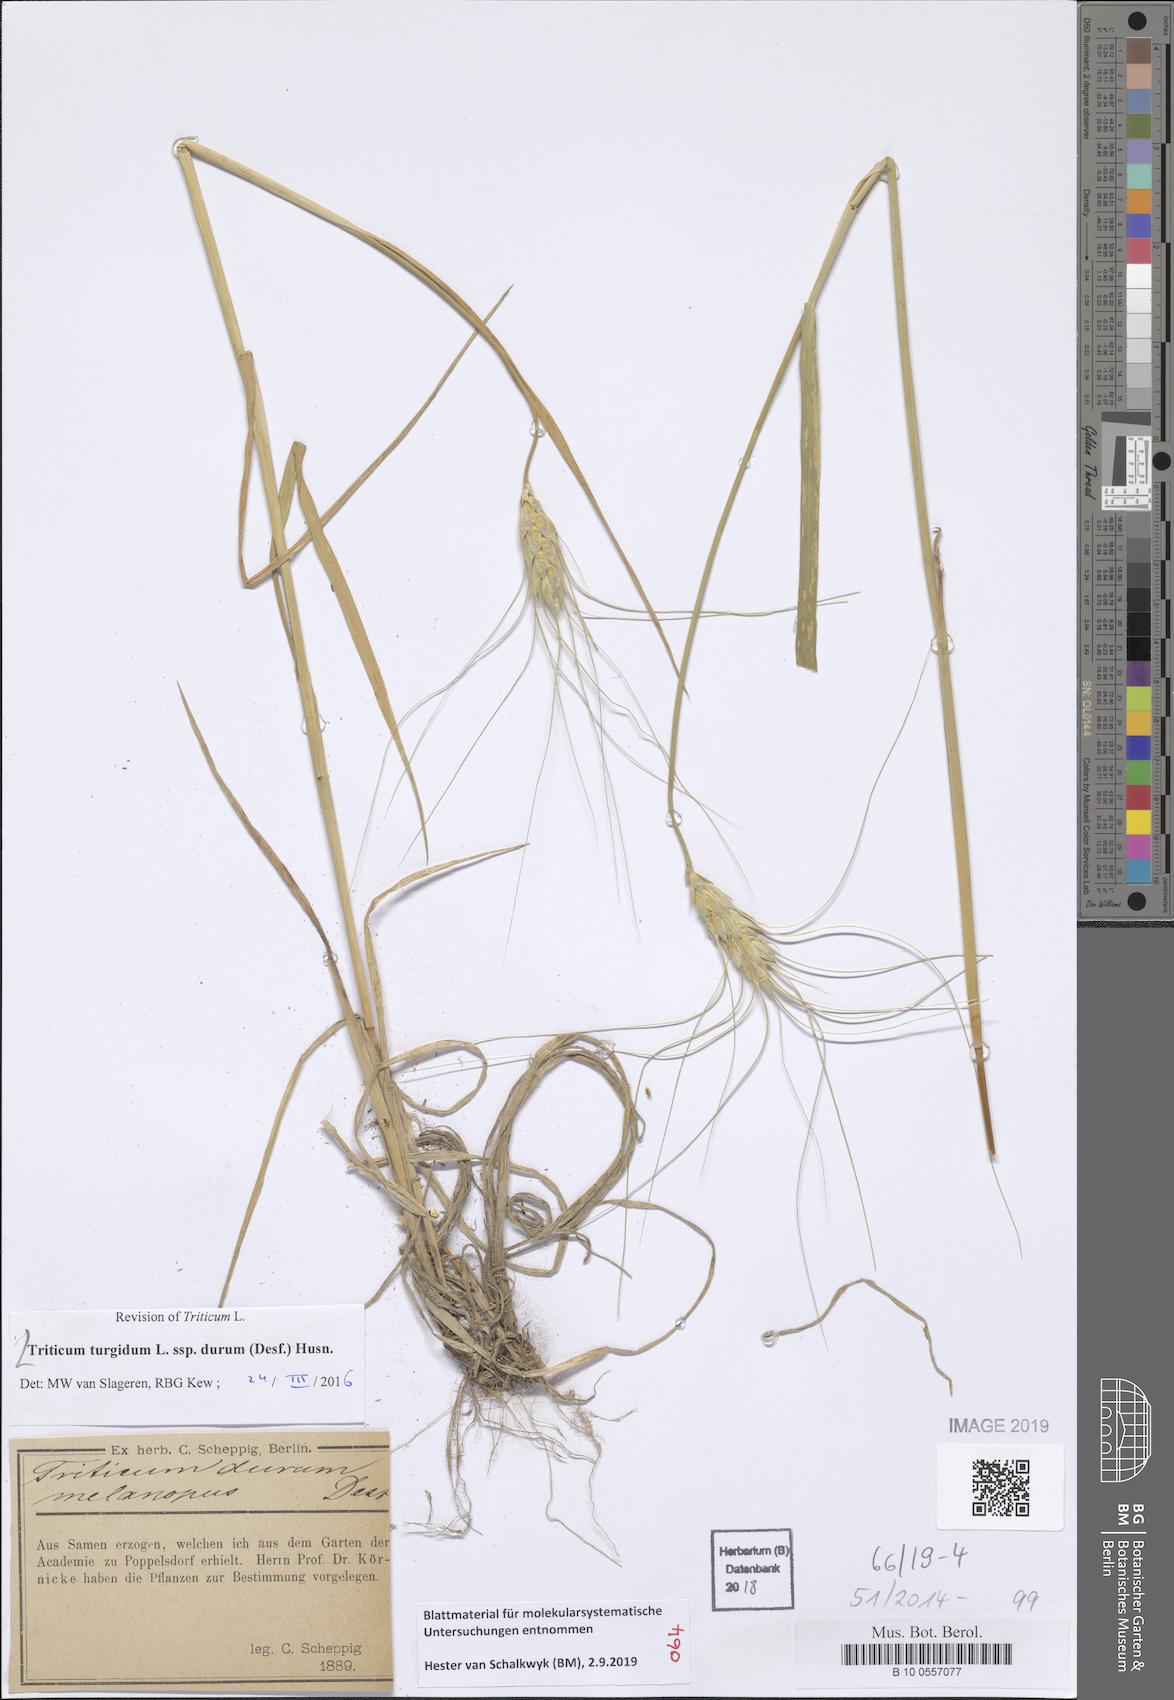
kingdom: Plantae
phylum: Tracheophyta
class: Liliopsida
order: Poales
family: Poaceae
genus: Triticum
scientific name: Triticum turgidum
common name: Rivet wheat
